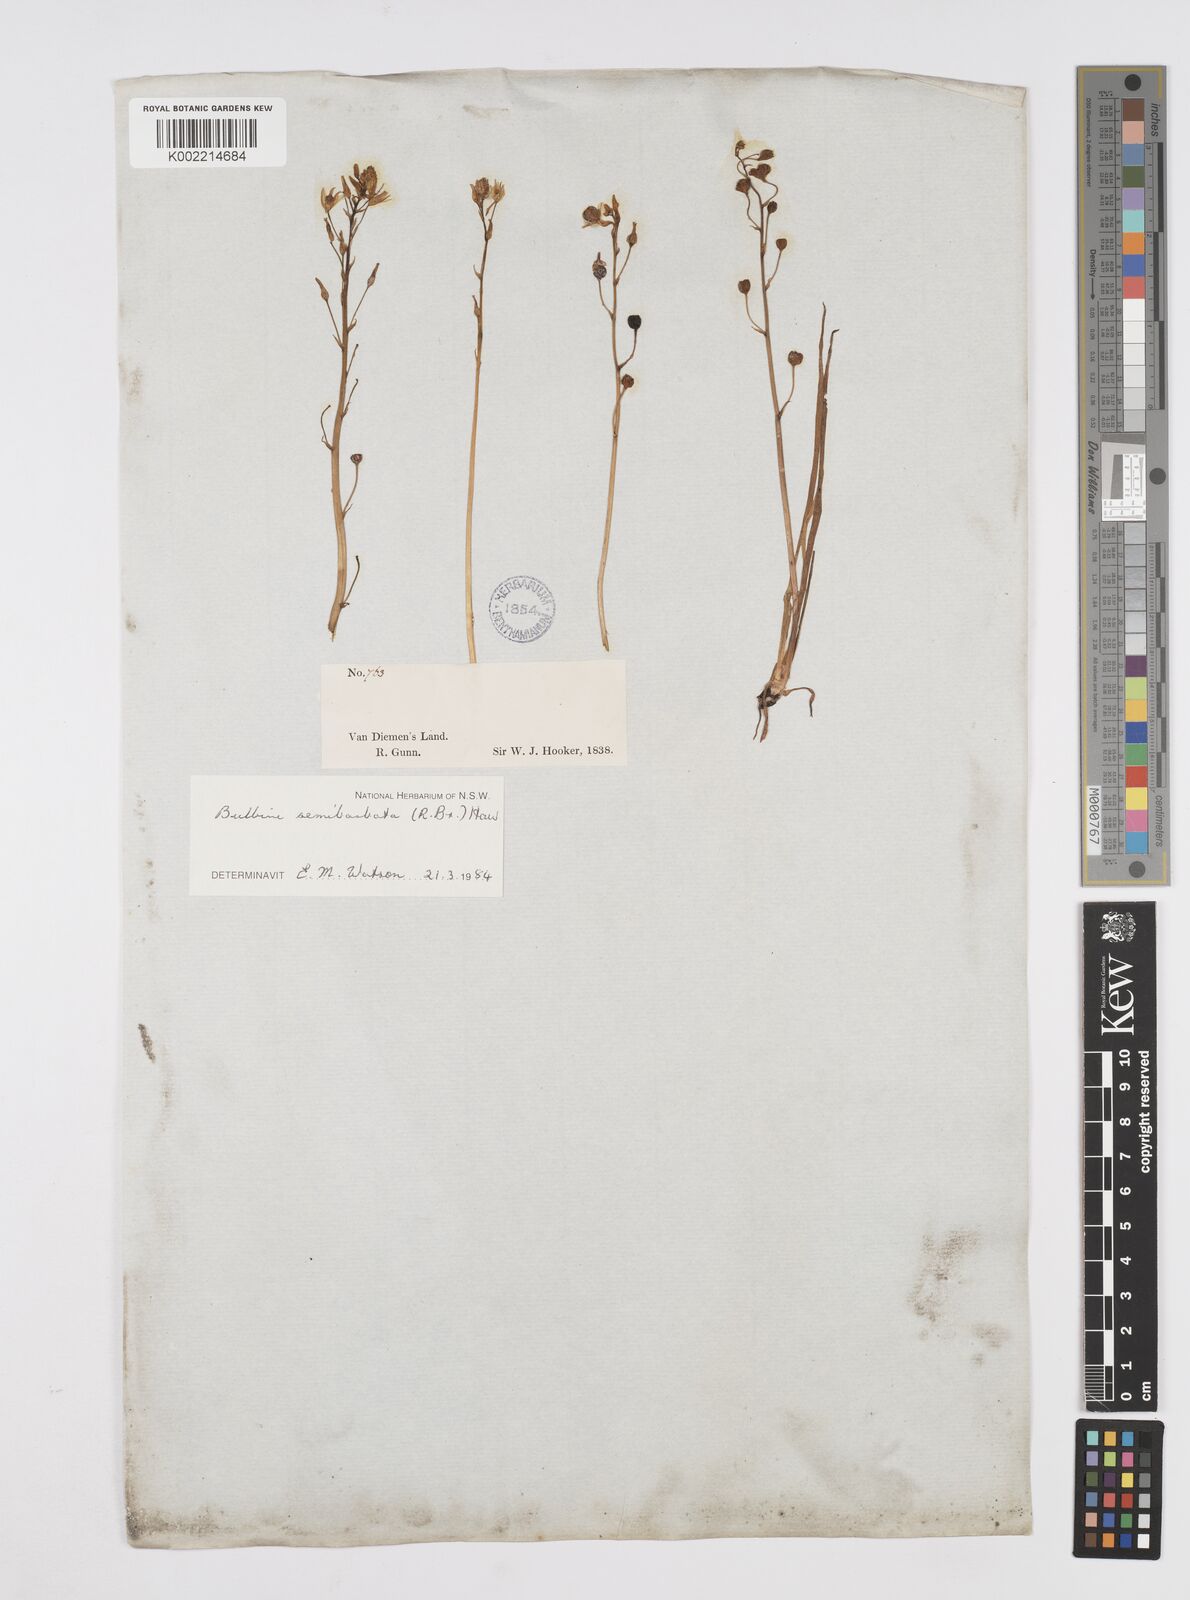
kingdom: Plantae
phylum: Tracheophyta
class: Liliopsida
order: Asparagales
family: Asphodelaceae
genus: Bulbine
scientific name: Bulbine semibarbata
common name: Leek lily
